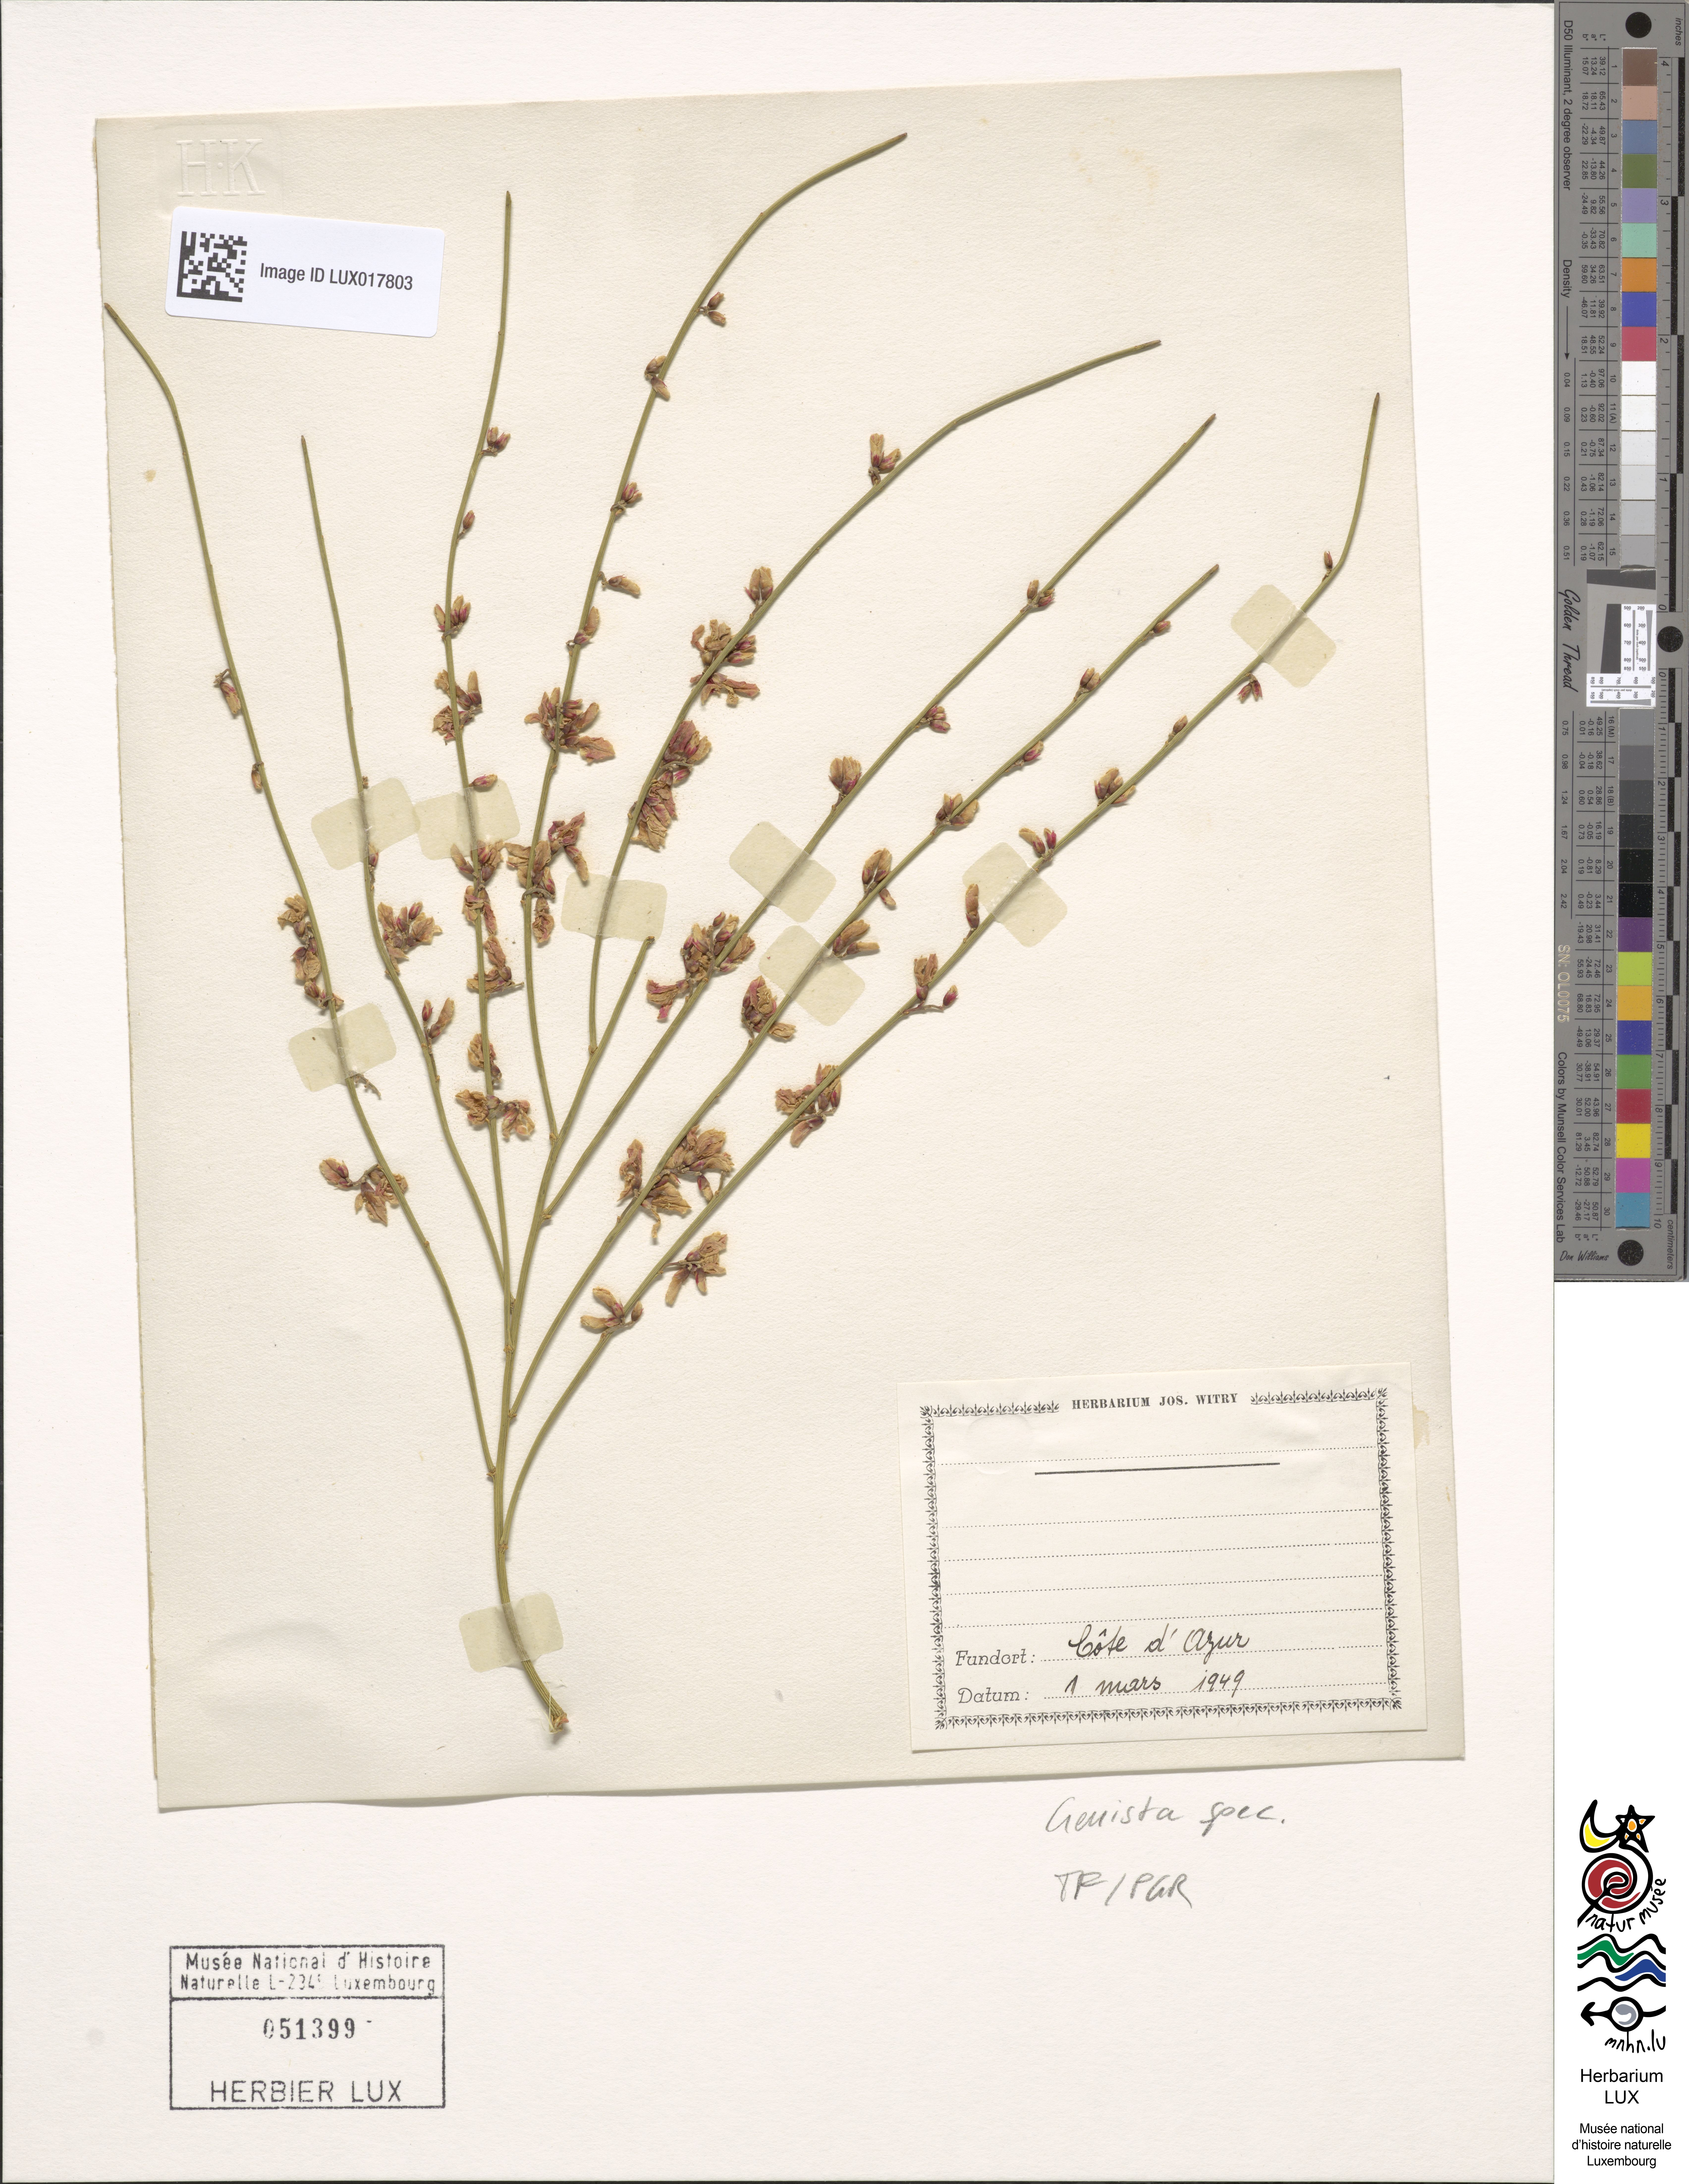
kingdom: Plantae
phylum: Tracheophyta
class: Magnoliopsida
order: Fabales
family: Fabaceae
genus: Genista
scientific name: Genista
